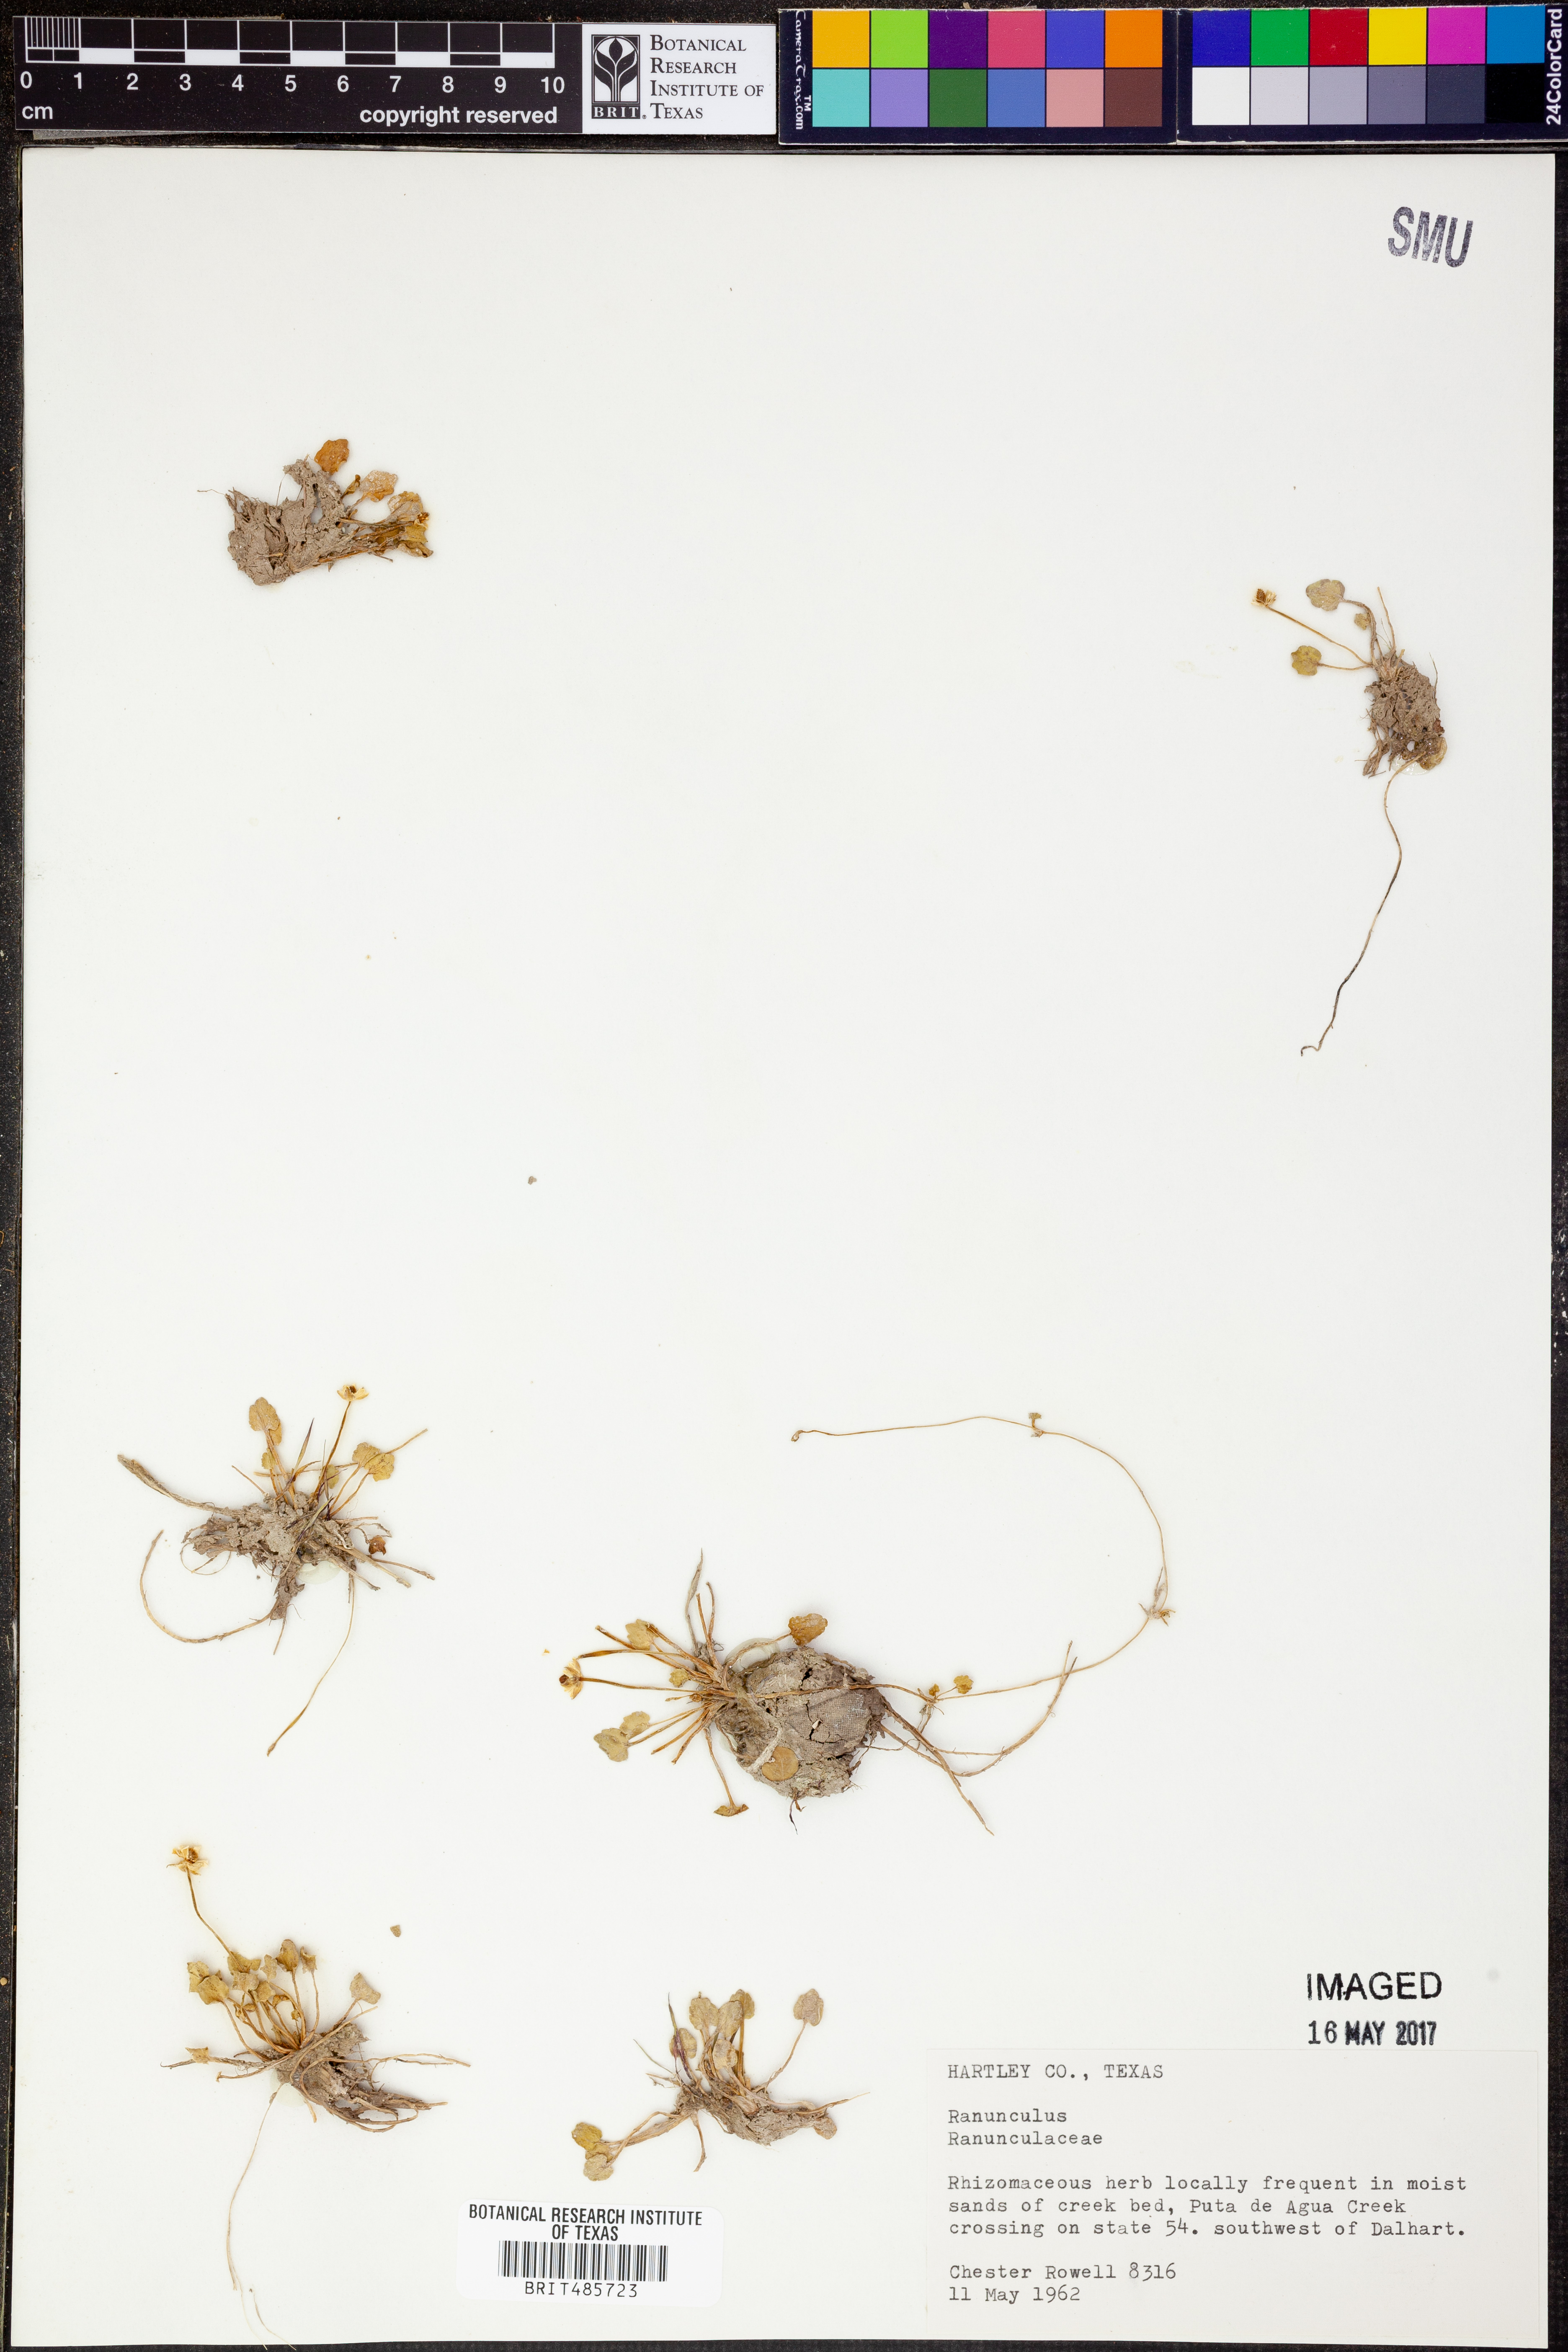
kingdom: Plantae
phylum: Tracheophyta
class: Magnoliopsida
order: Ranunculales
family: Ranunculaceae
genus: Ranunculus
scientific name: Ranunculus
